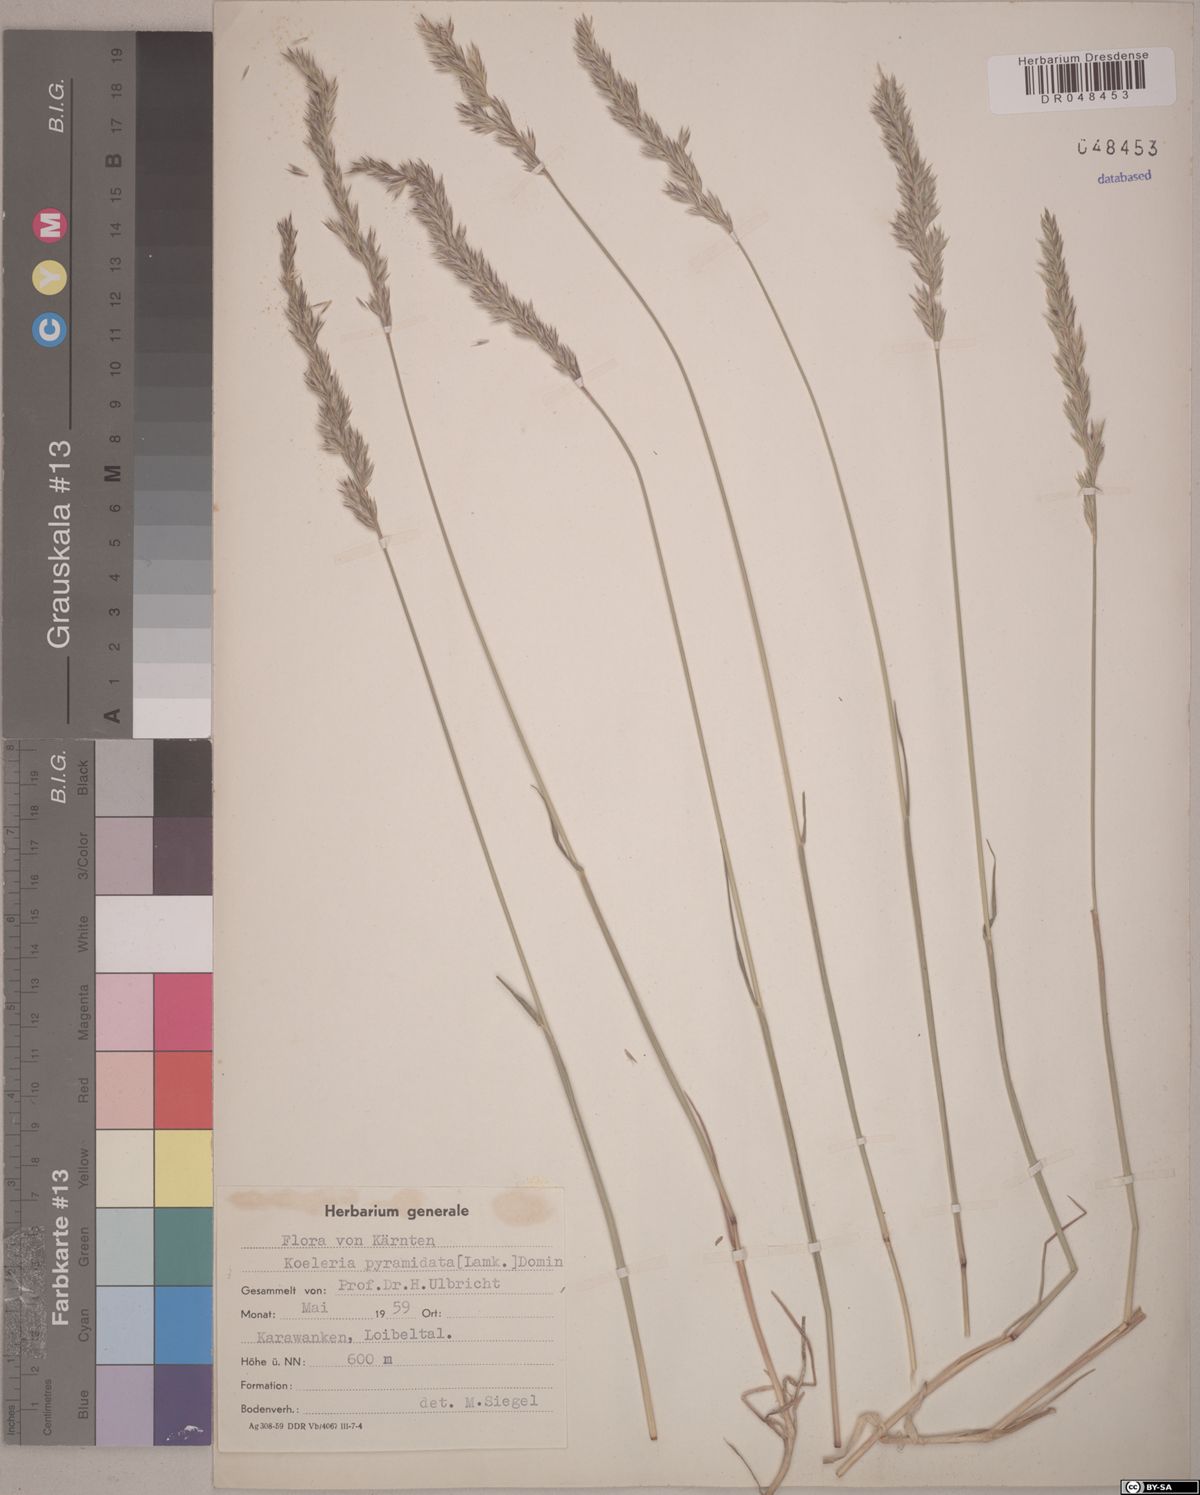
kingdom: Plantae
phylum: Tracheophyta
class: Liliopsida
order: Poales
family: Poaceae
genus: Koeleria
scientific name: Koeleria pyramidata
